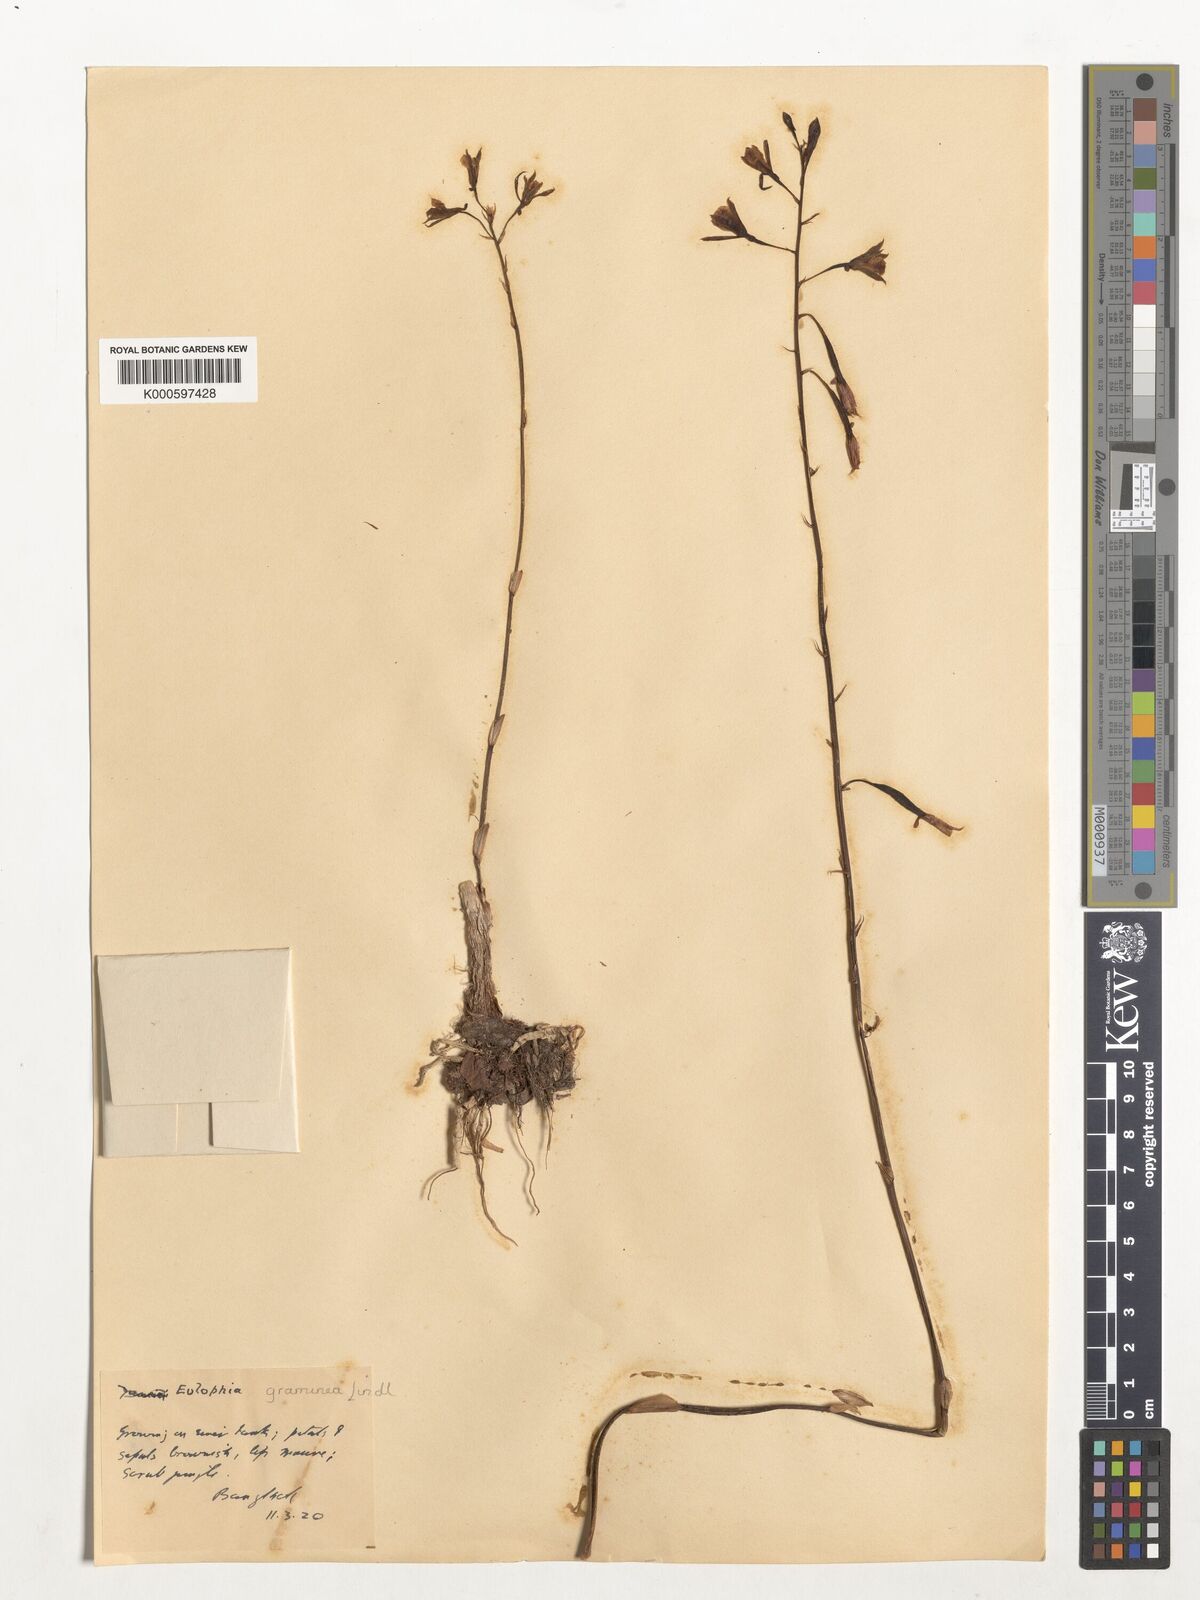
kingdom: Plantae
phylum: Tracheophyta
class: Liliopsida
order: Asparagales
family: Orchidaceae
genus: Eulophia
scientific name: Eulophia graminea
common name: Orchid
